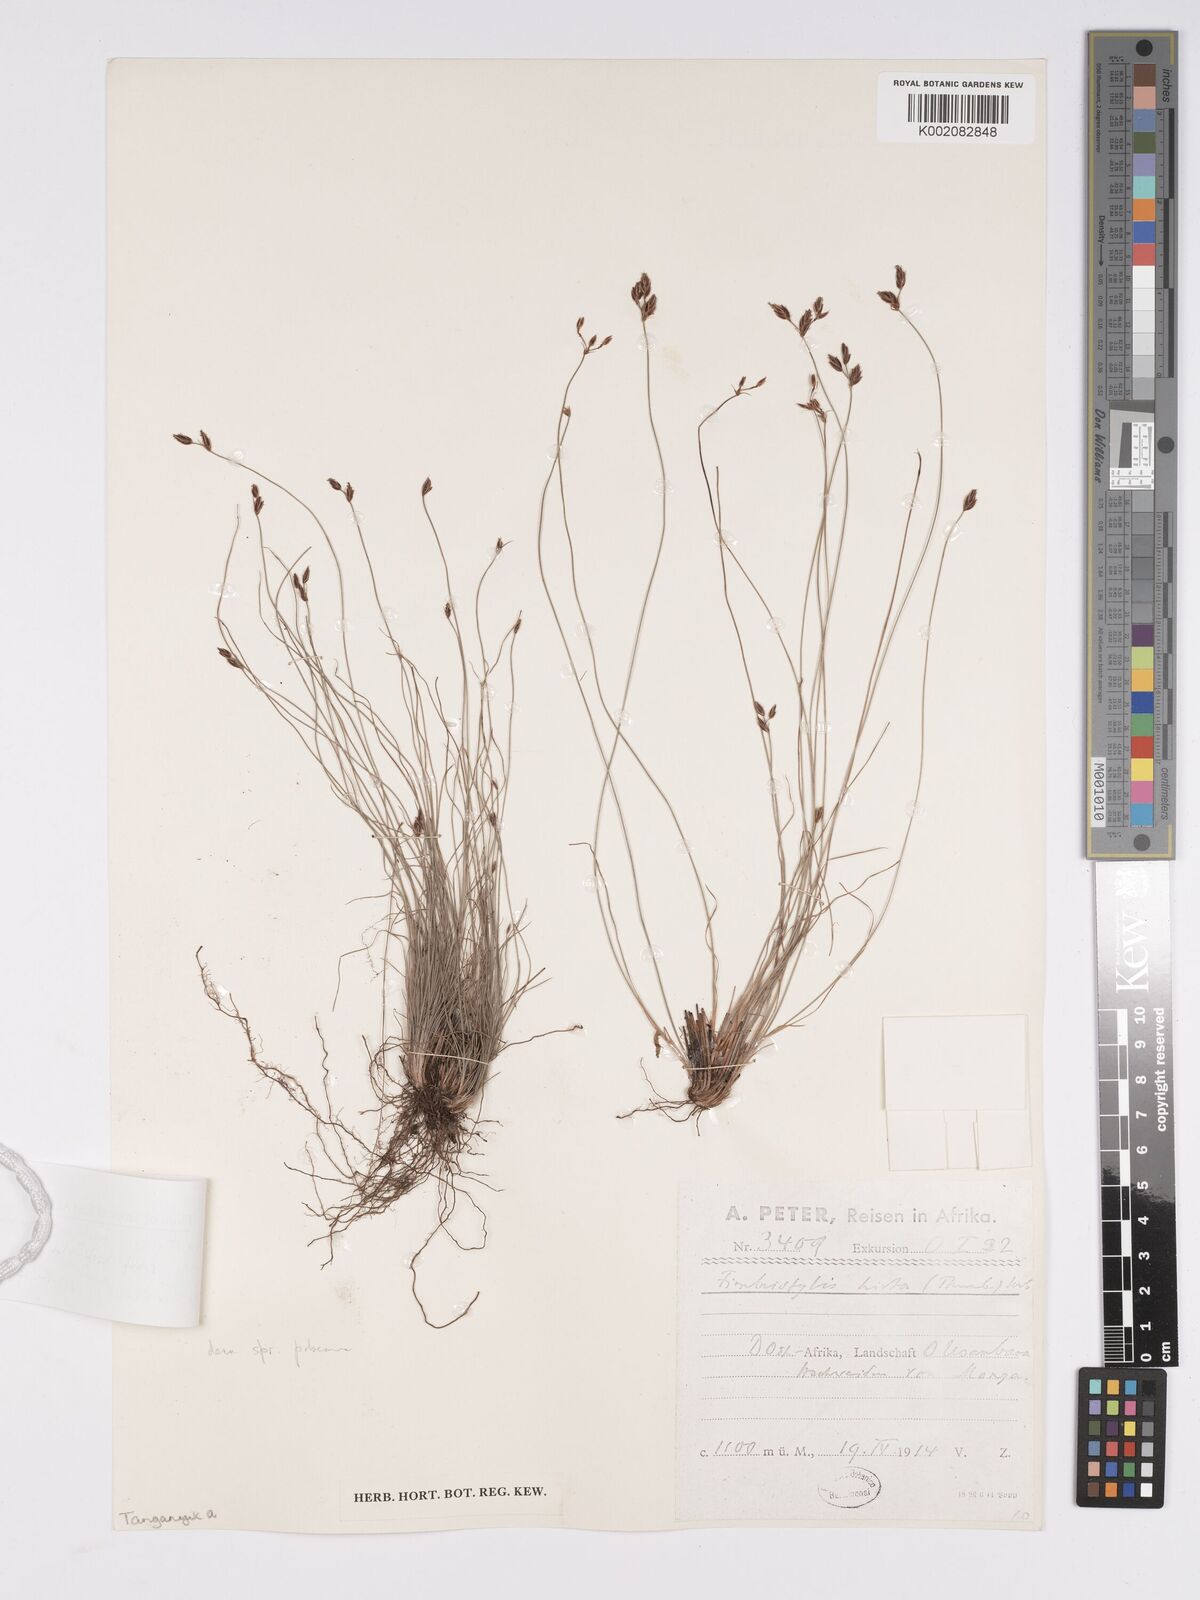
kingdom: Plantae
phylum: Tracheophyta
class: Liliopsida
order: Poales
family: Cyperaceae
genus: Bulbostylis
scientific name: Bulbostylis hispidula
